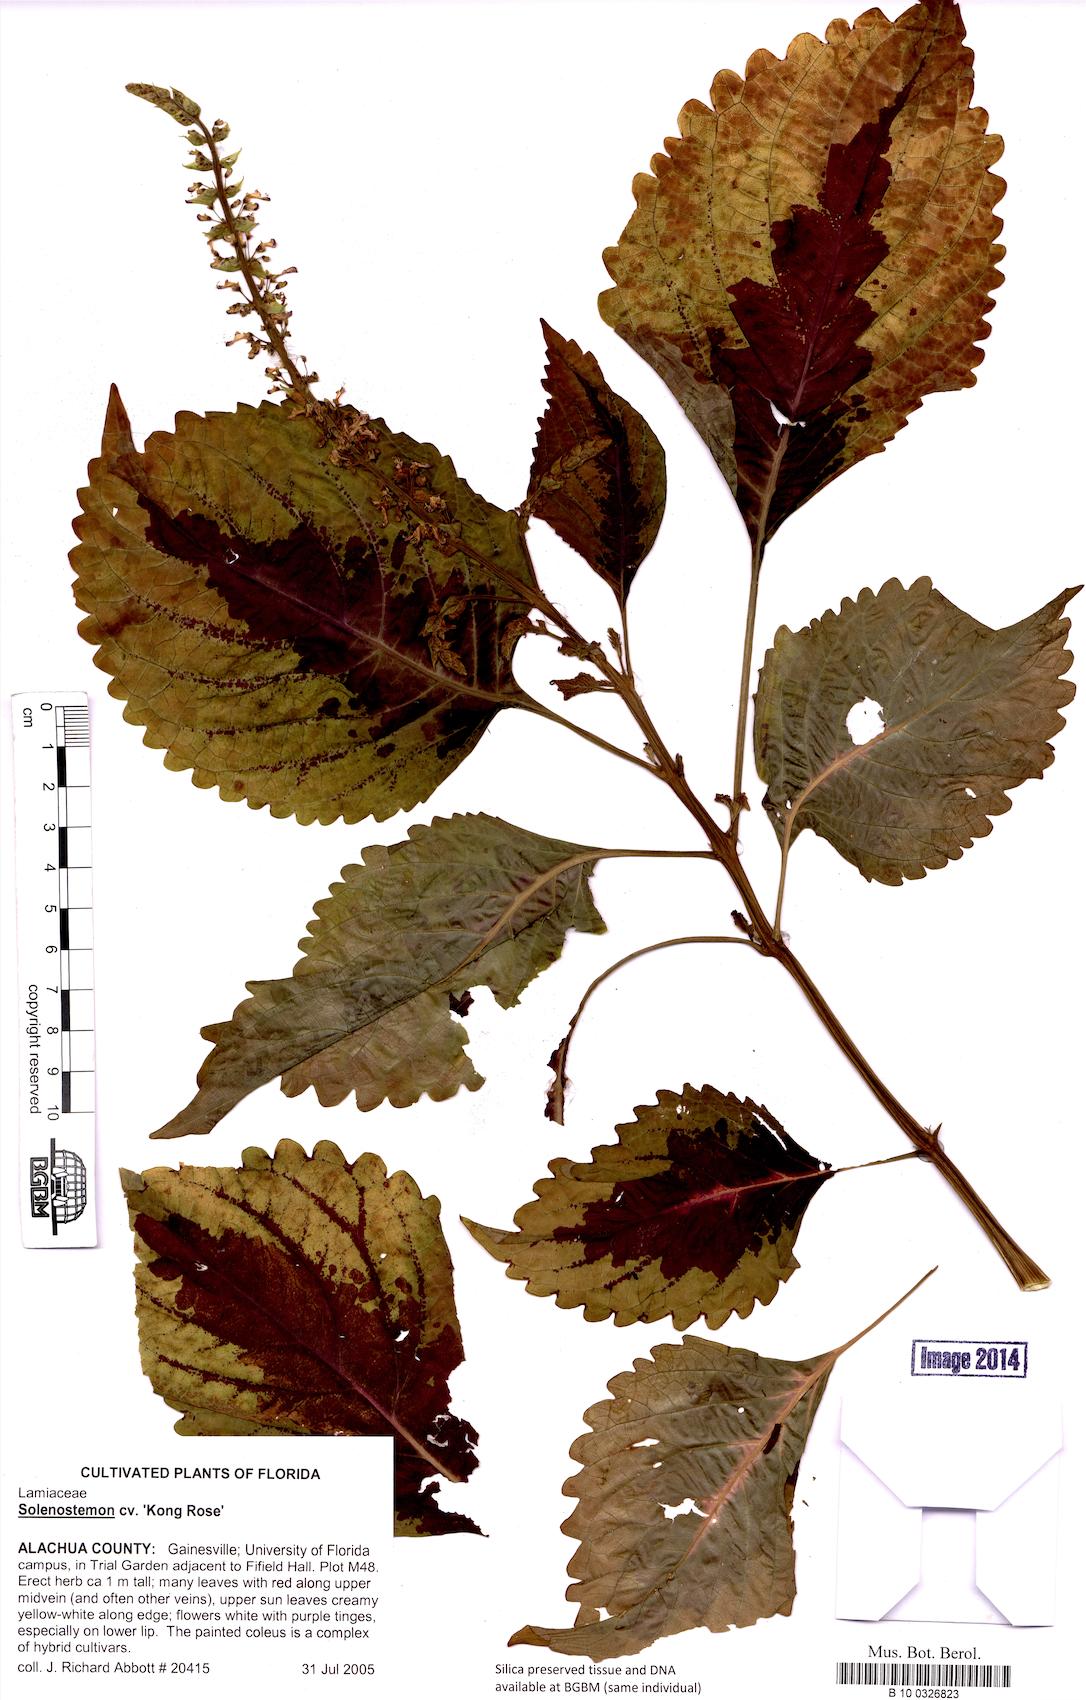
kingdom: Plantae
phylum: Tracheophyta
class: Magnoliopsida
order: Lamiales
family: Lamiaceae
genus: Coleus
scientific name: Coleus
